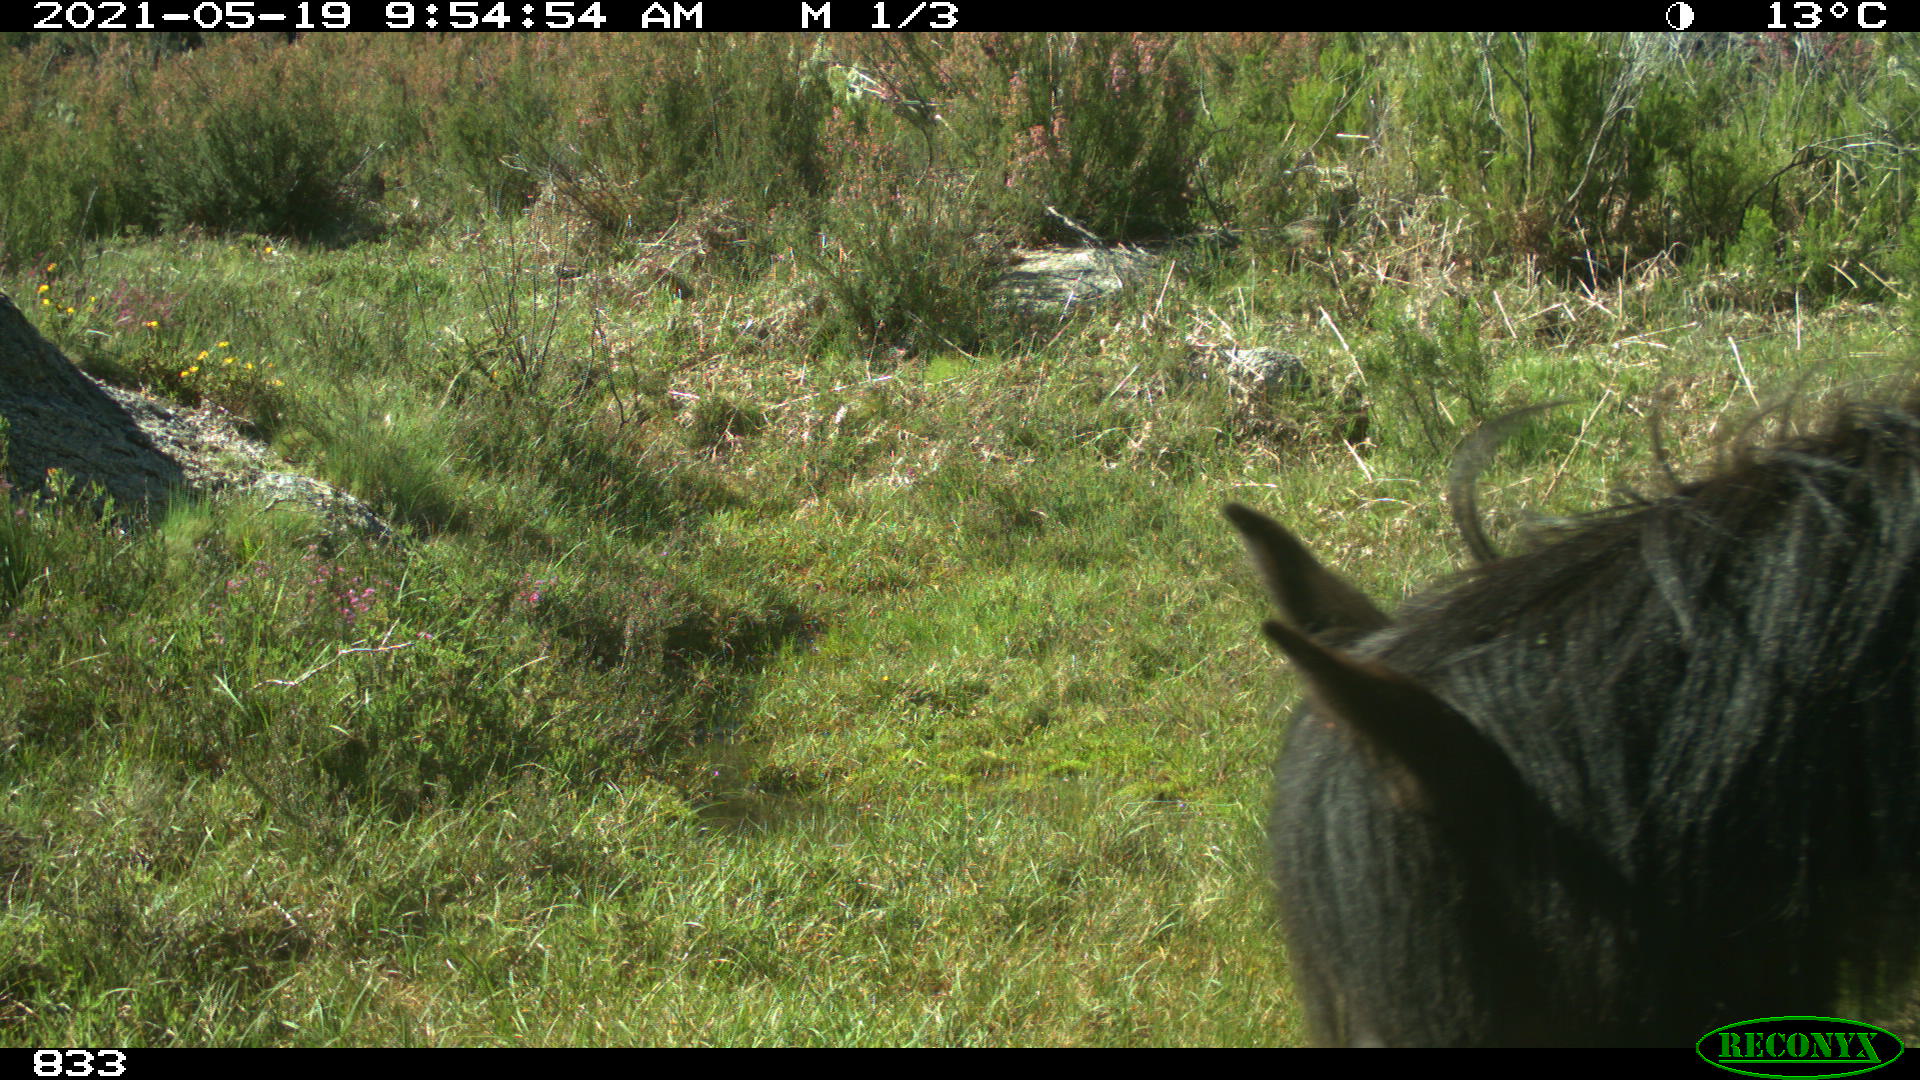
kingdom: Animalia
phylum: Chordata
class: Mammalia
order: Perissodactyla
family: Equidae
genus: Equus
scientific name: Equus caballus
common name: Horse
